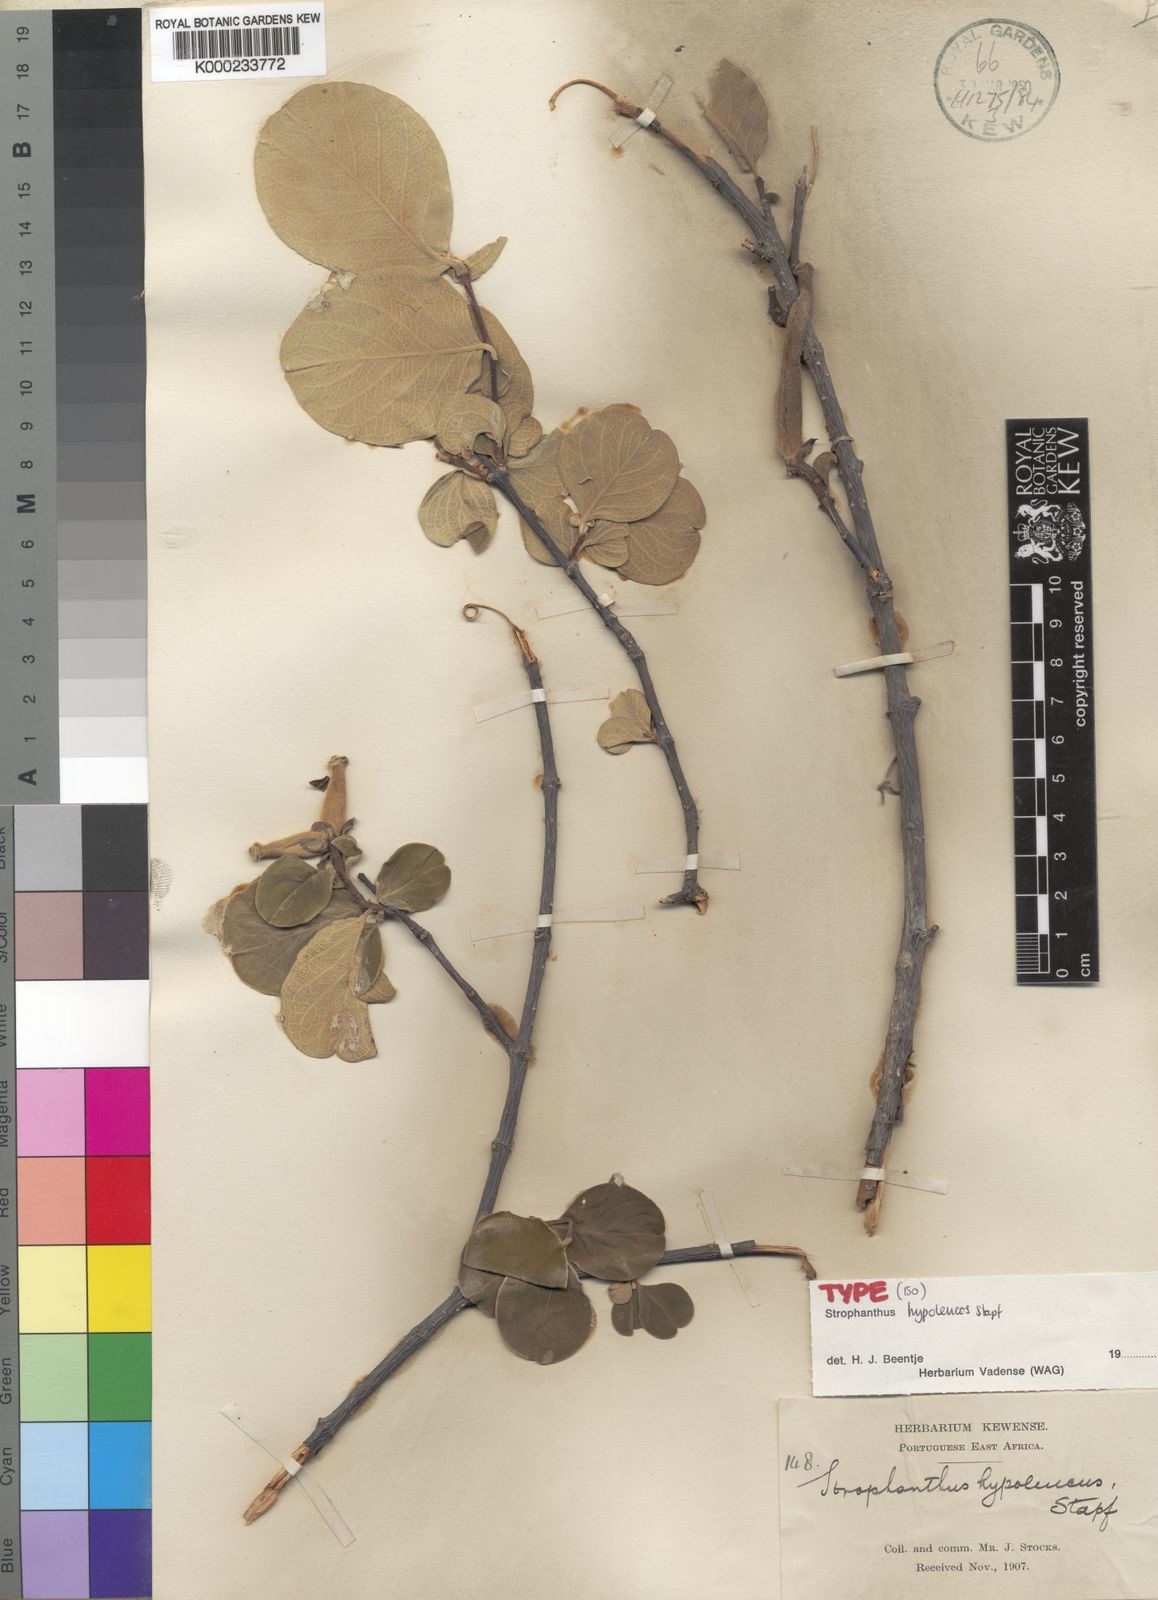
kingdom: Plantae
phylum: Tracheophyta
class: Magnoliopsida
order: Gentianales
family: Apocynaceae
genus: Strophanthus
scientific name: Strophanthus
